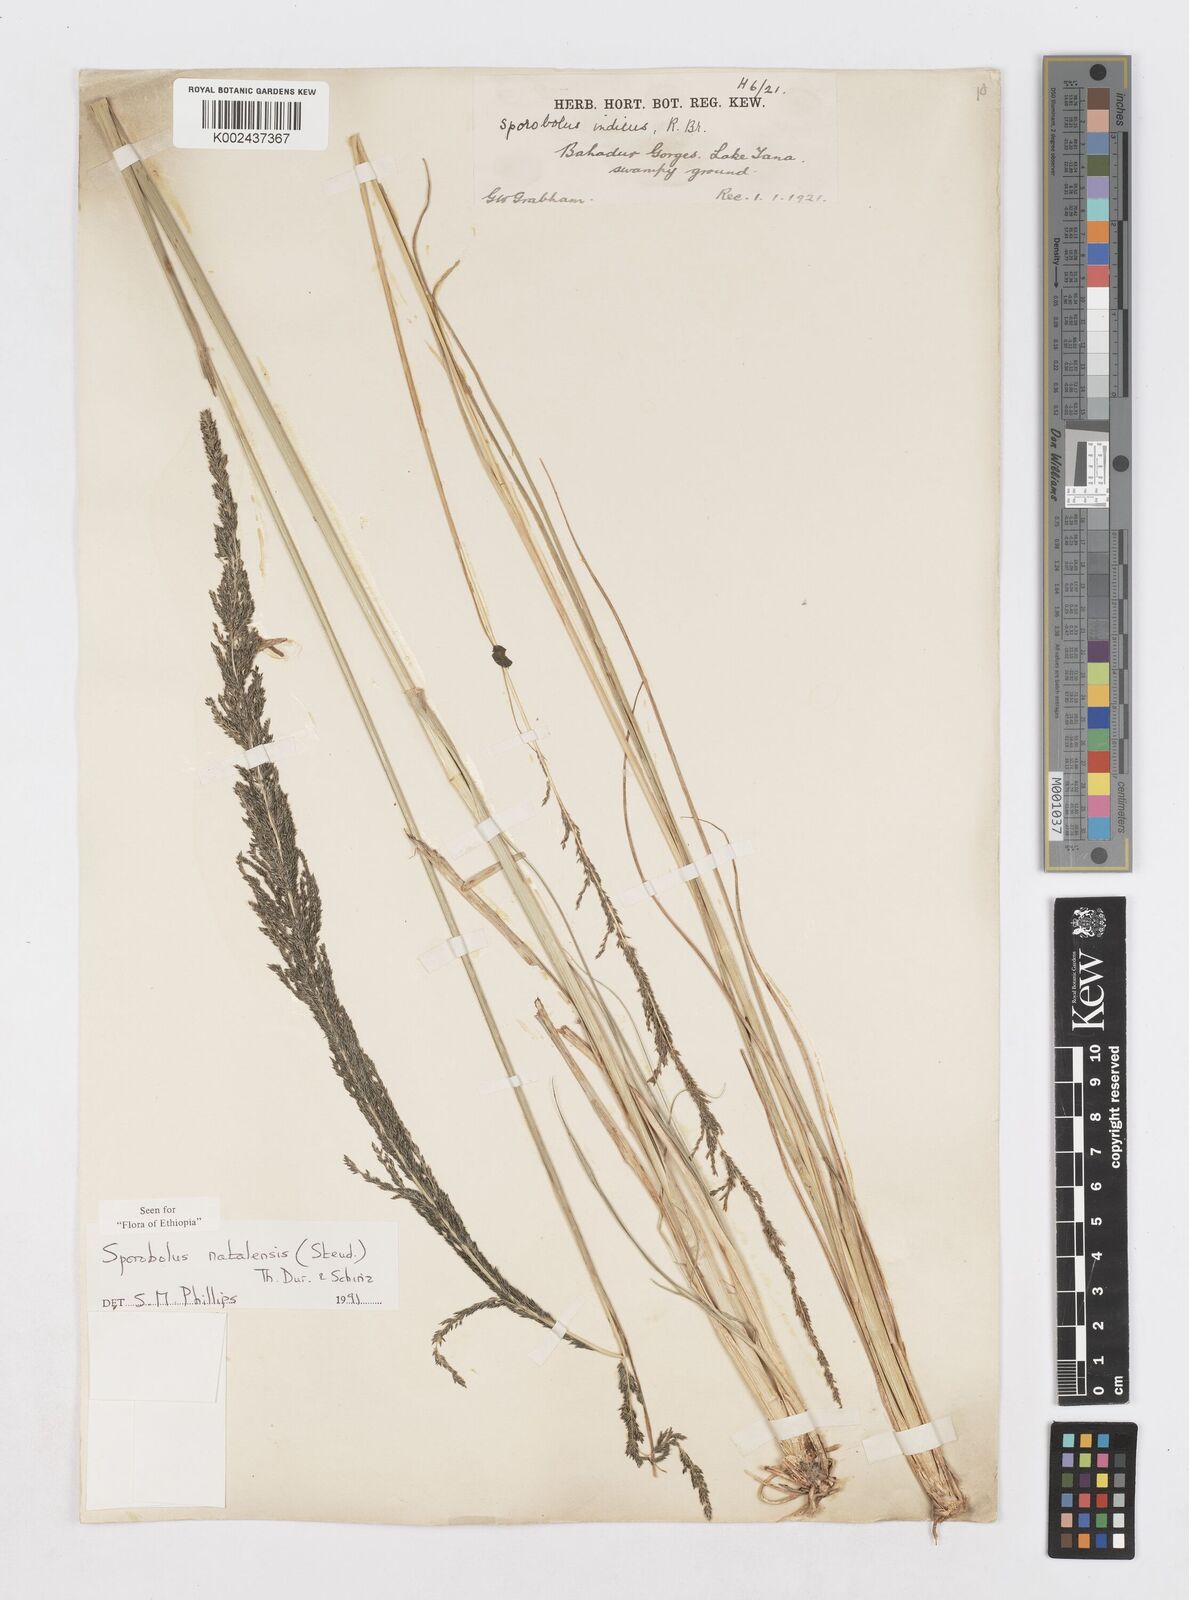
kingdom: Plantae
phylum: Tracheophyta
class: Liliopsida
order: Poales
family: Poaceae
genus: Sporobolus
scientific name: Sporobolus natalensis
